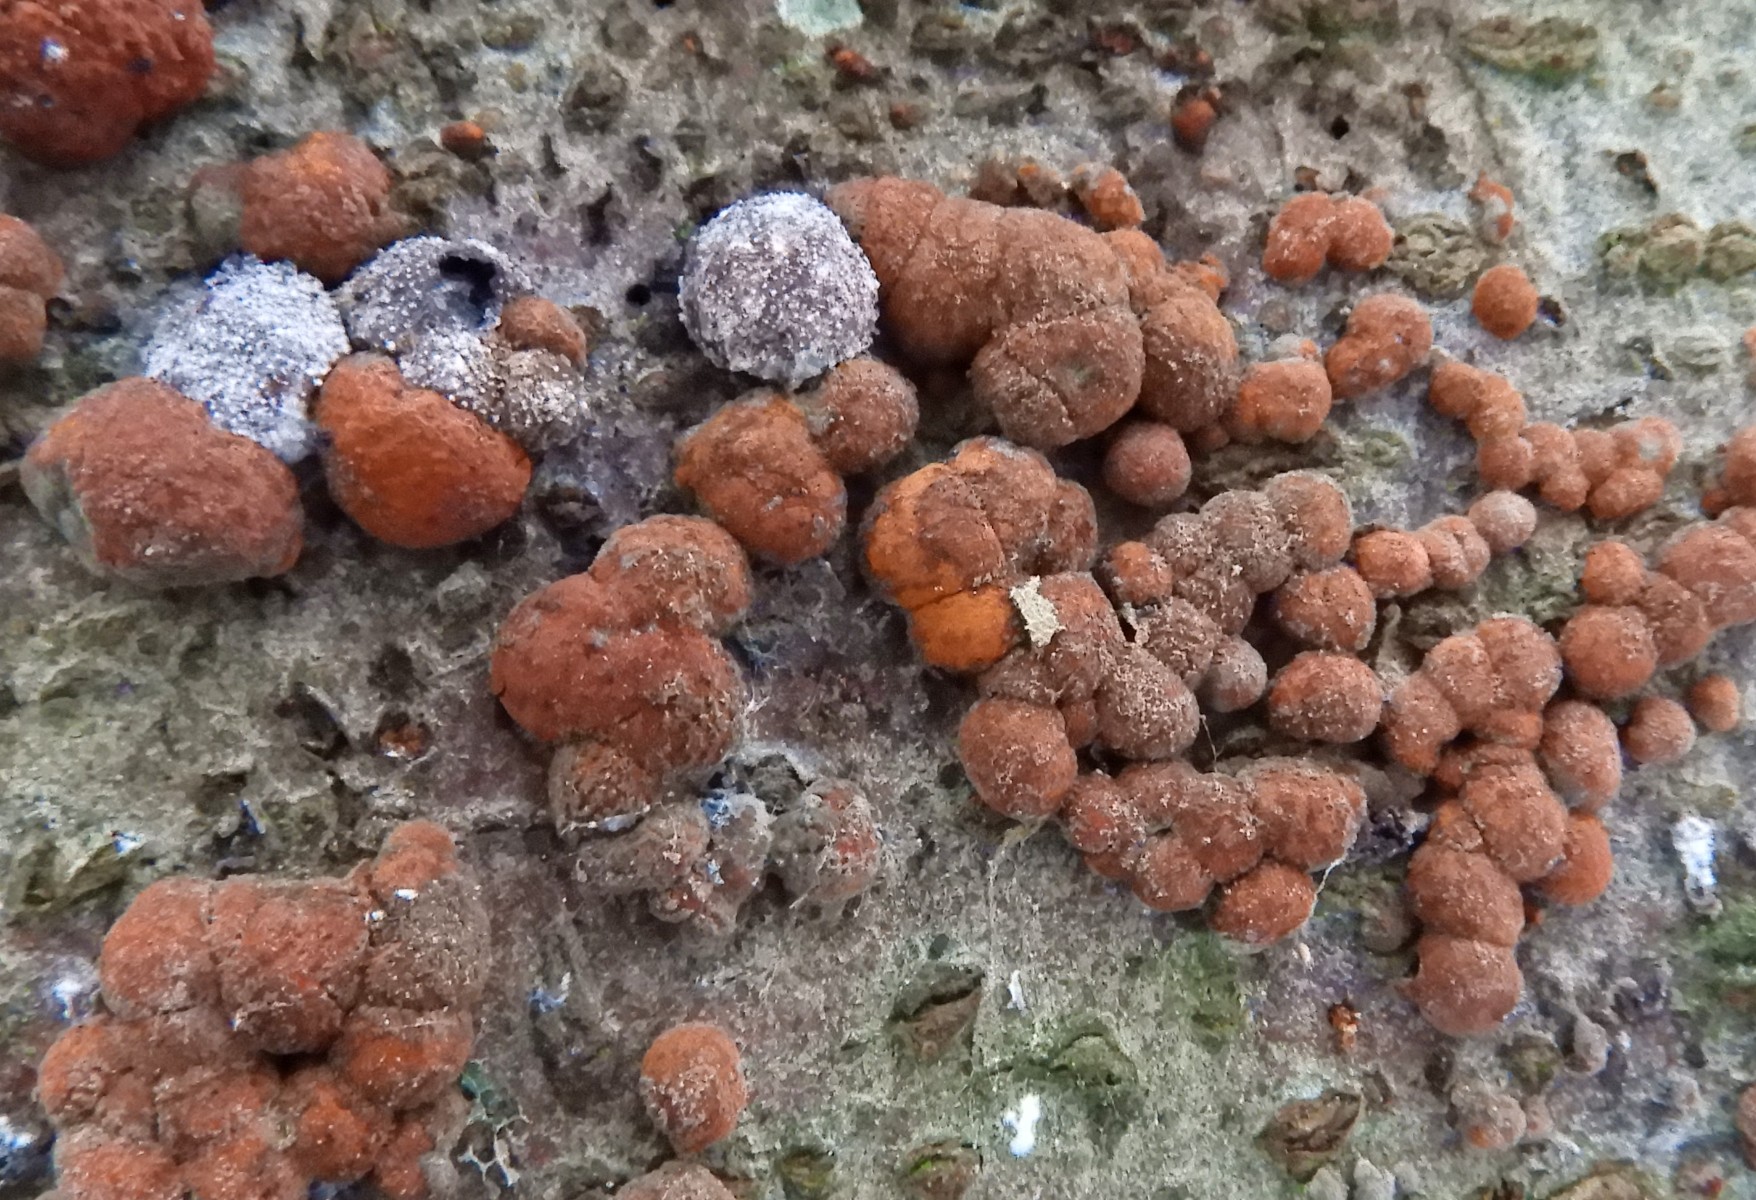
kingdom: Fungi
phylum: Ascomycota
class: Sordariomycetes
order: Xylariales
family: Hypoxylaceae
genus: Hypoxylon
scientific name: Hypoxylon fragiforme
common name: kuljordbær
